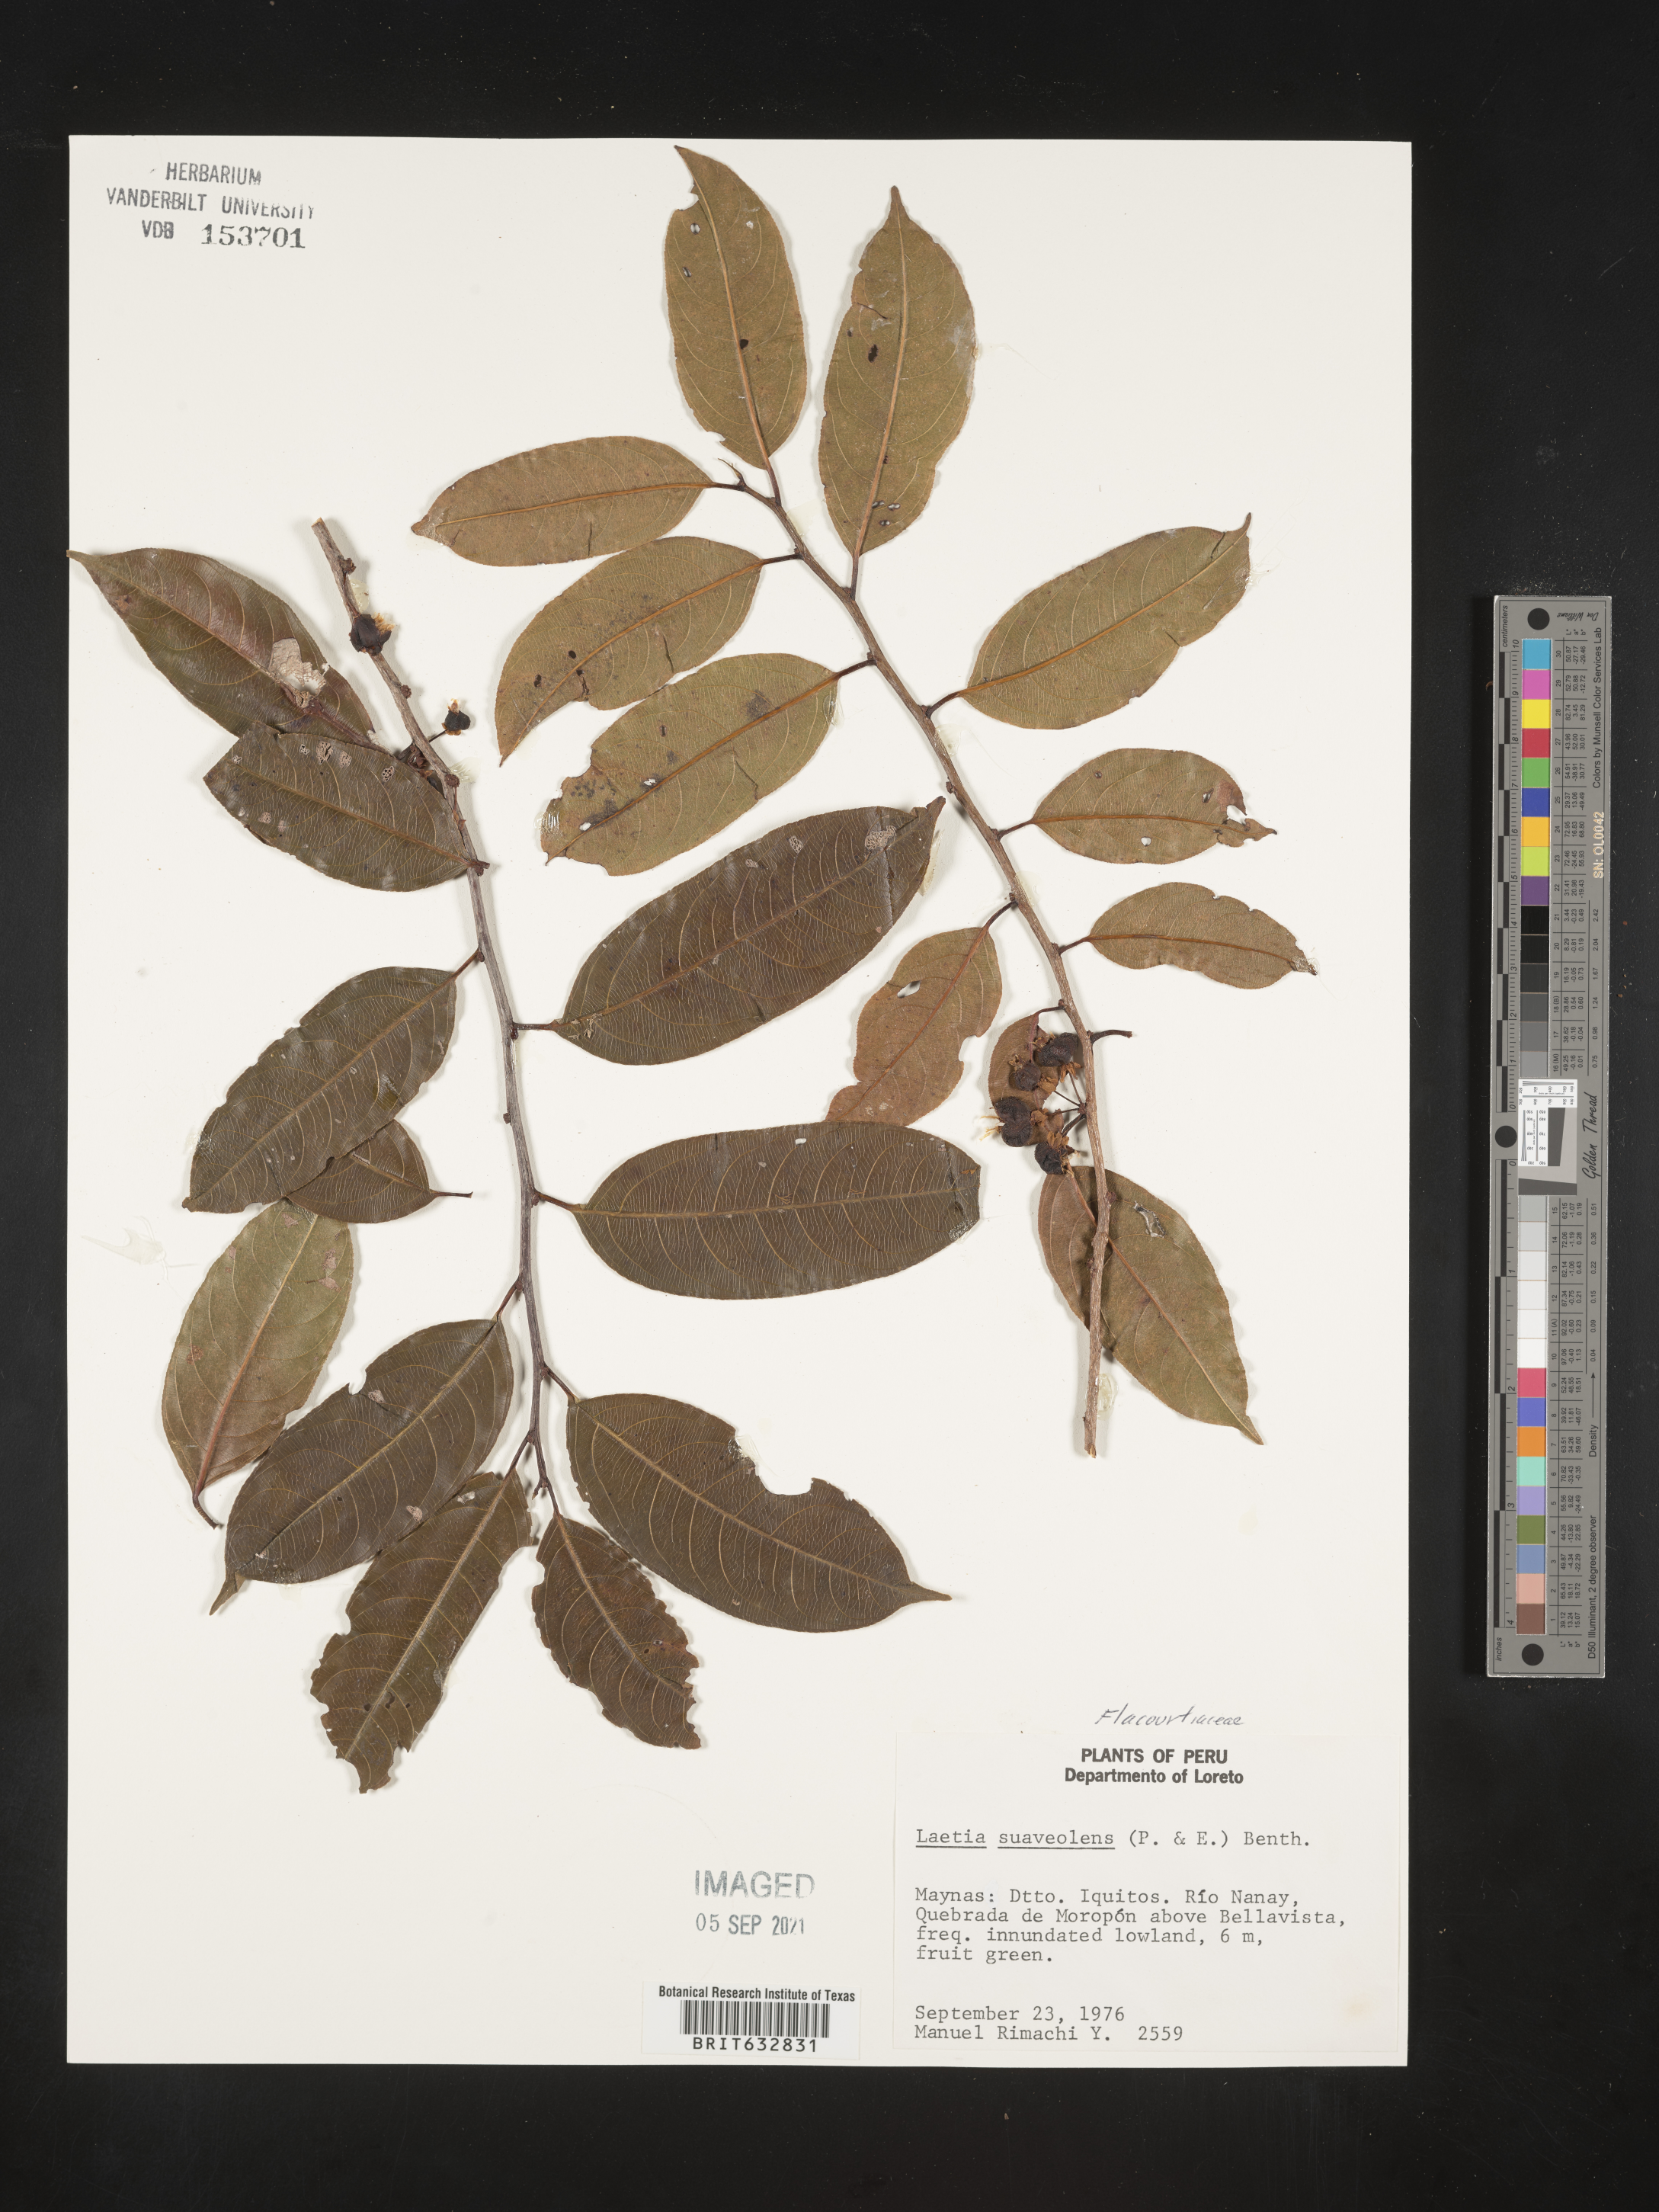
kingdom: Plantae
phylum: Tracheophyta
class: Magnoliopsida
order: Malpighiales
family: Flacourtiaceae
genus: Laetia
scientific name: Laetia
